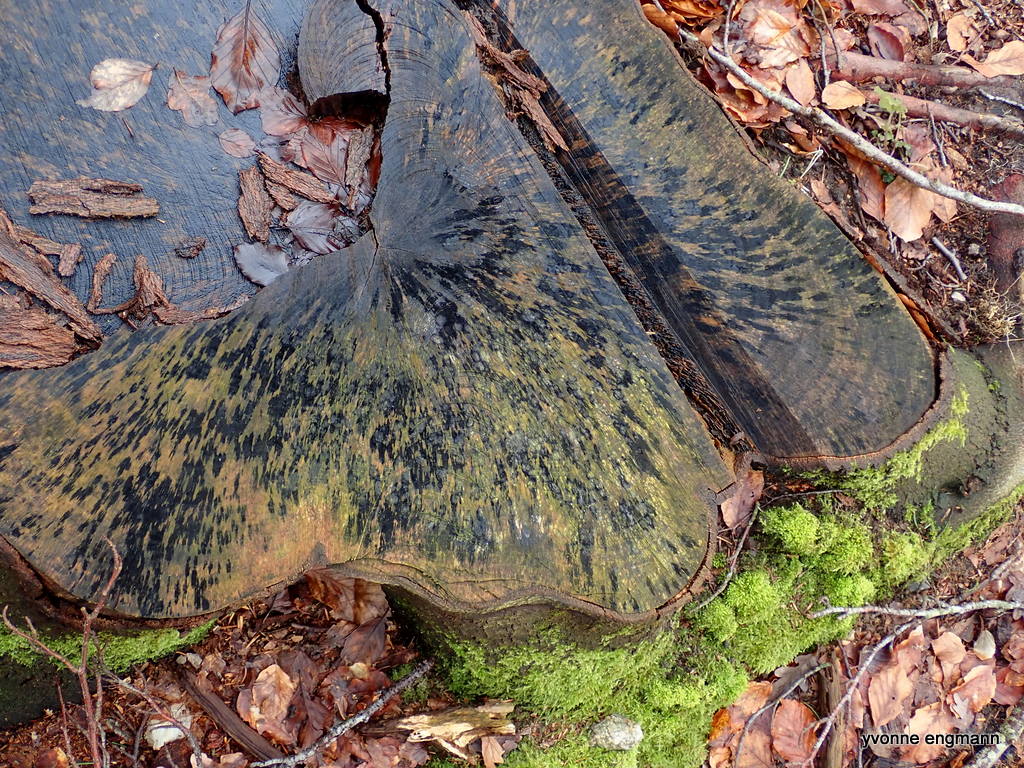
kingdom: Fungi
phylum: Ascomycota
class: Leotiomycetes
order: Helotiales
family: Helotiaceae
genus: Bispora
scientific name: Bispora pallescens
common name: måtte-snitskive
